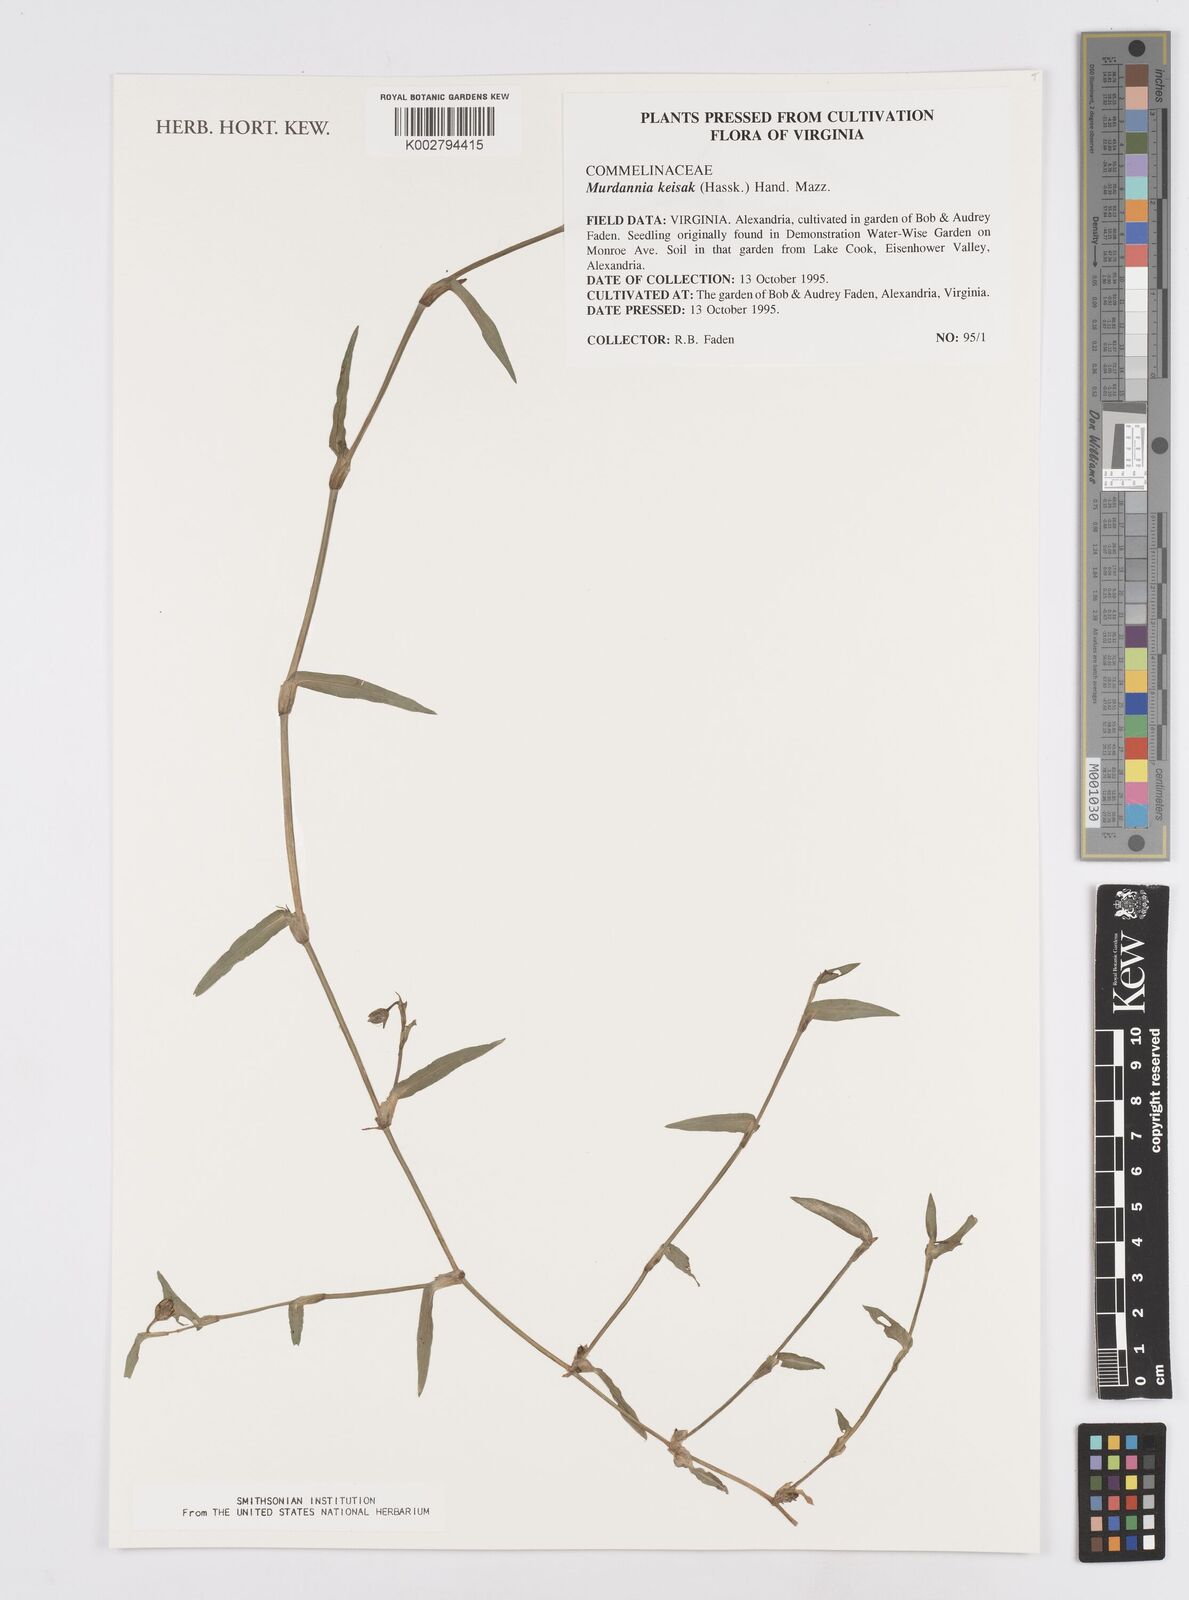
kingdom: Plantae
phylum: Tracheophyta
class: Liliopsida
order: Commelinales
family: Commelinaceae
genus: Murdannia
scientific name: Murdannia keisak
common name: Wartremoving herb
